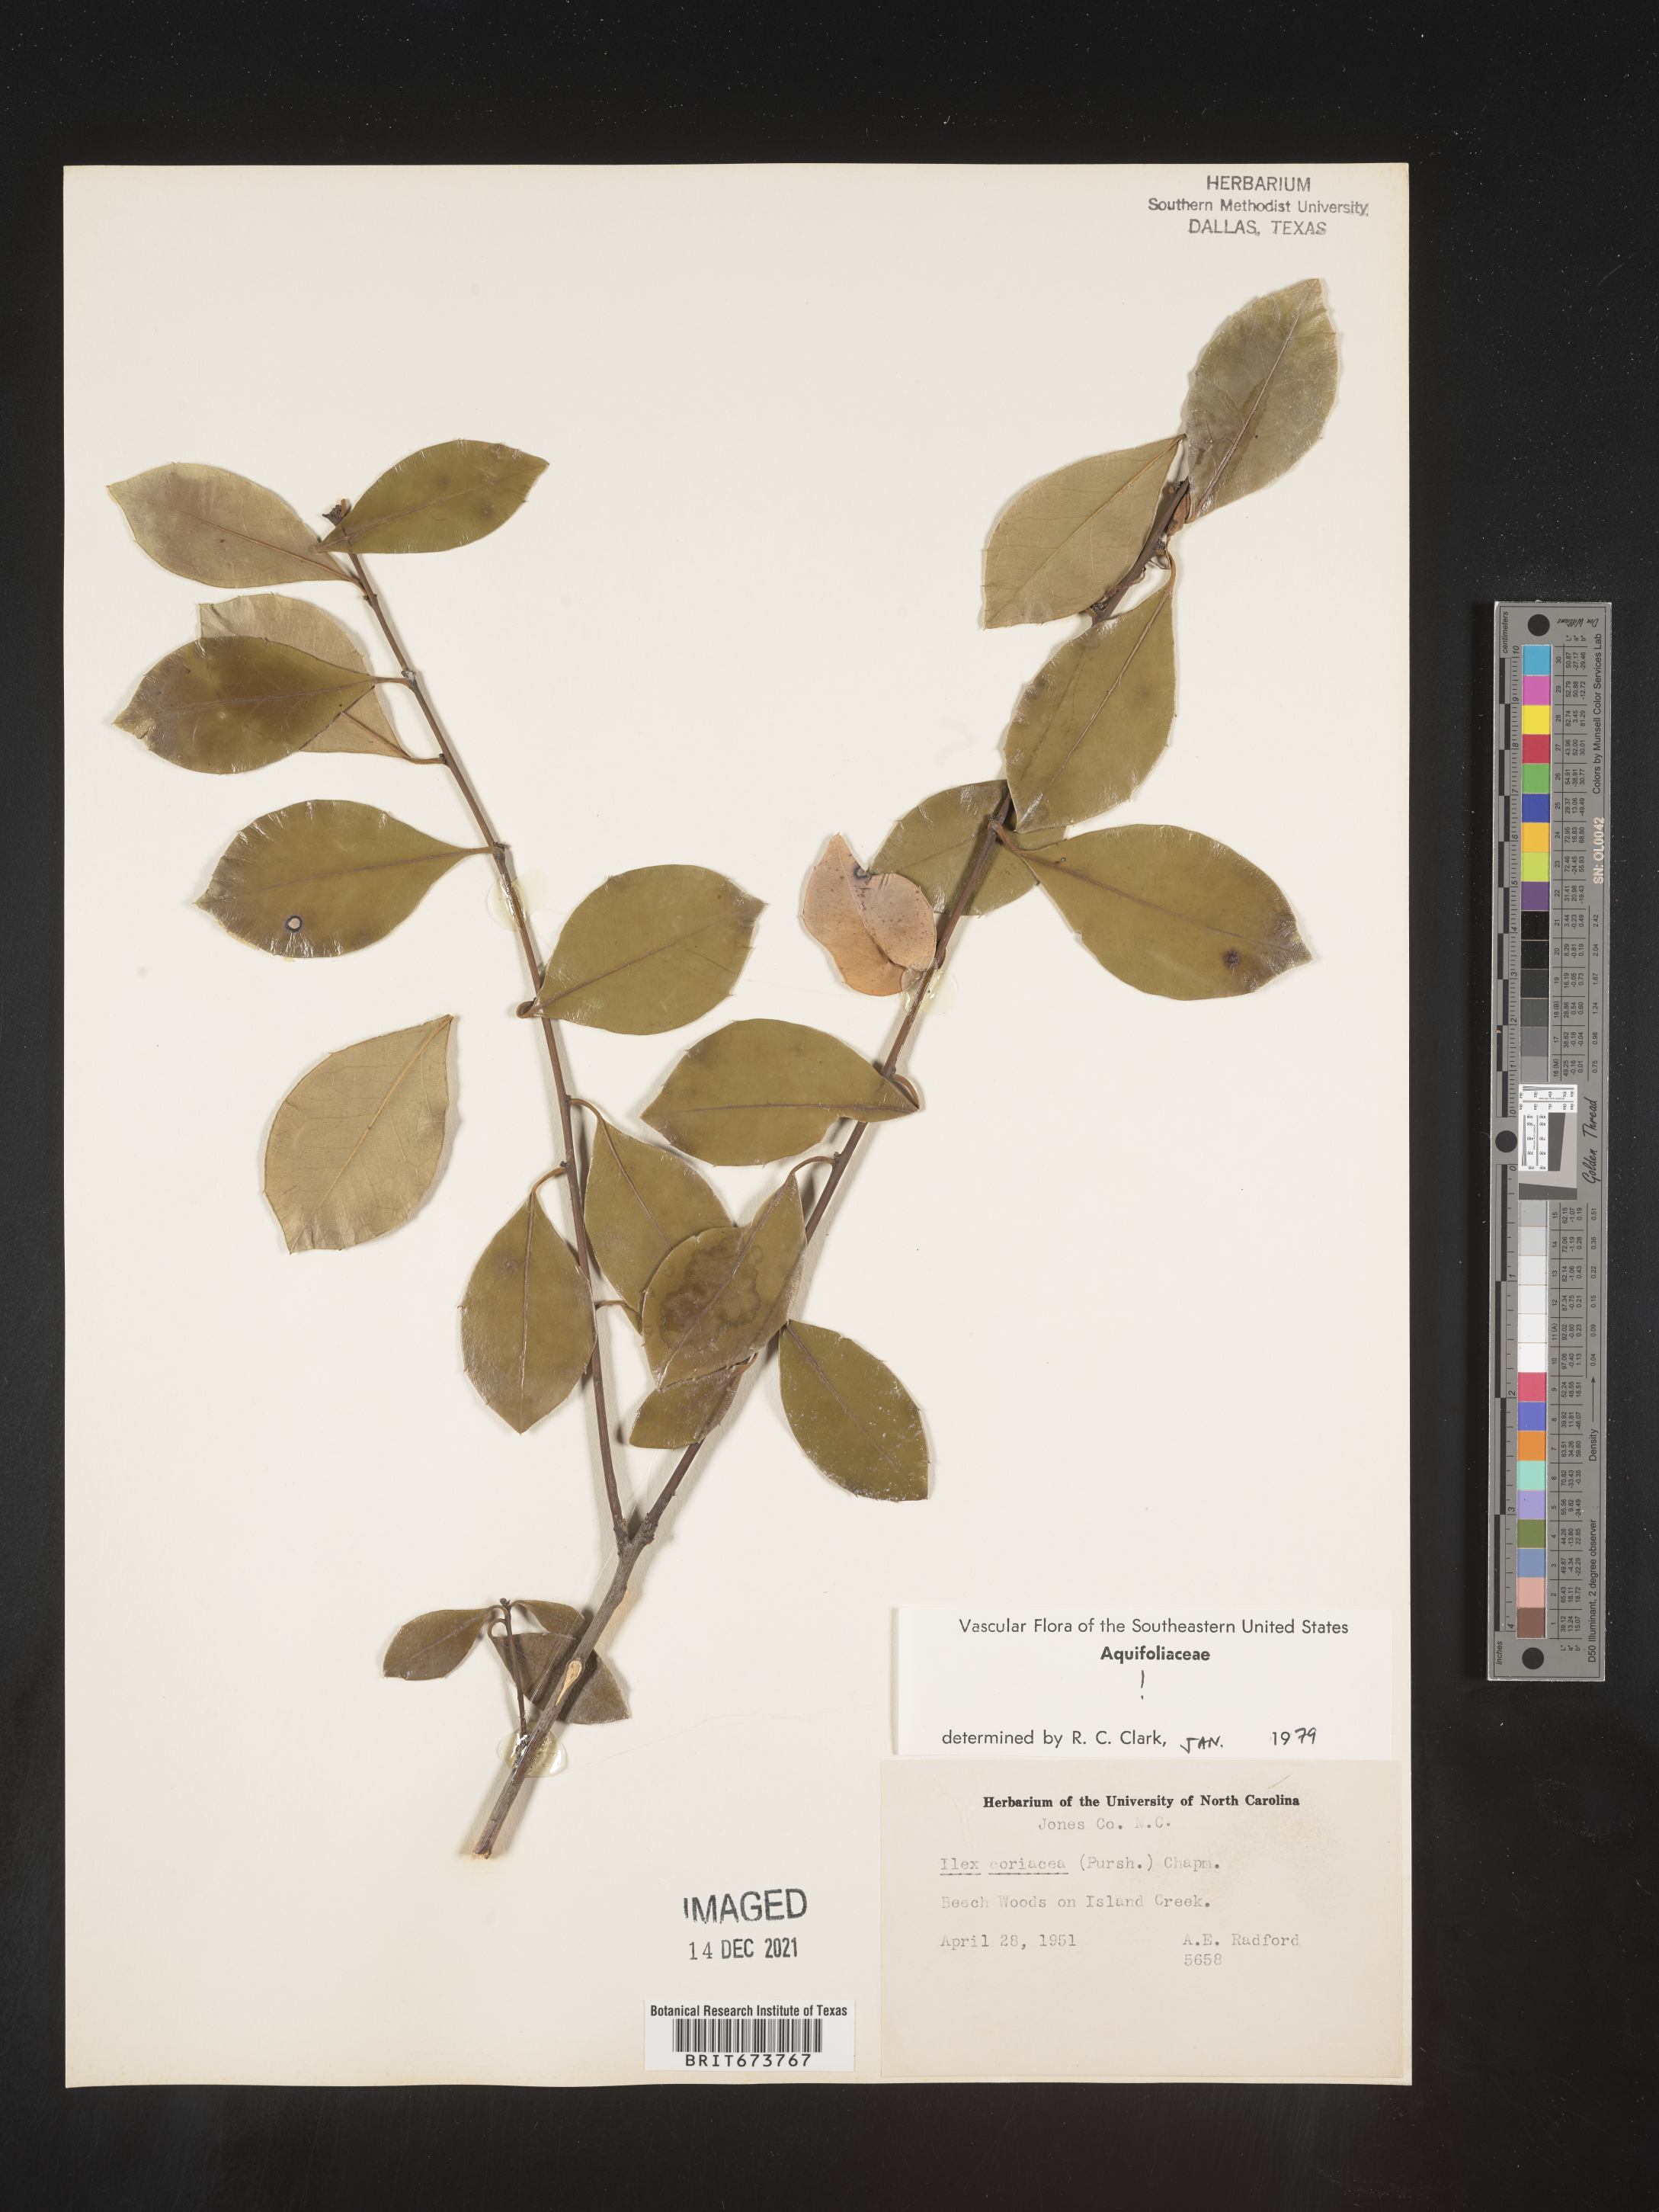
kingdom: Plantae
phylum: Tracheophyta
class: Magnoliopsida
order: Aquifoliales
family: Aquifoliaceae
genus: Ilex
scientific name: Ilex coriacea
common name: Sweet gallberry
